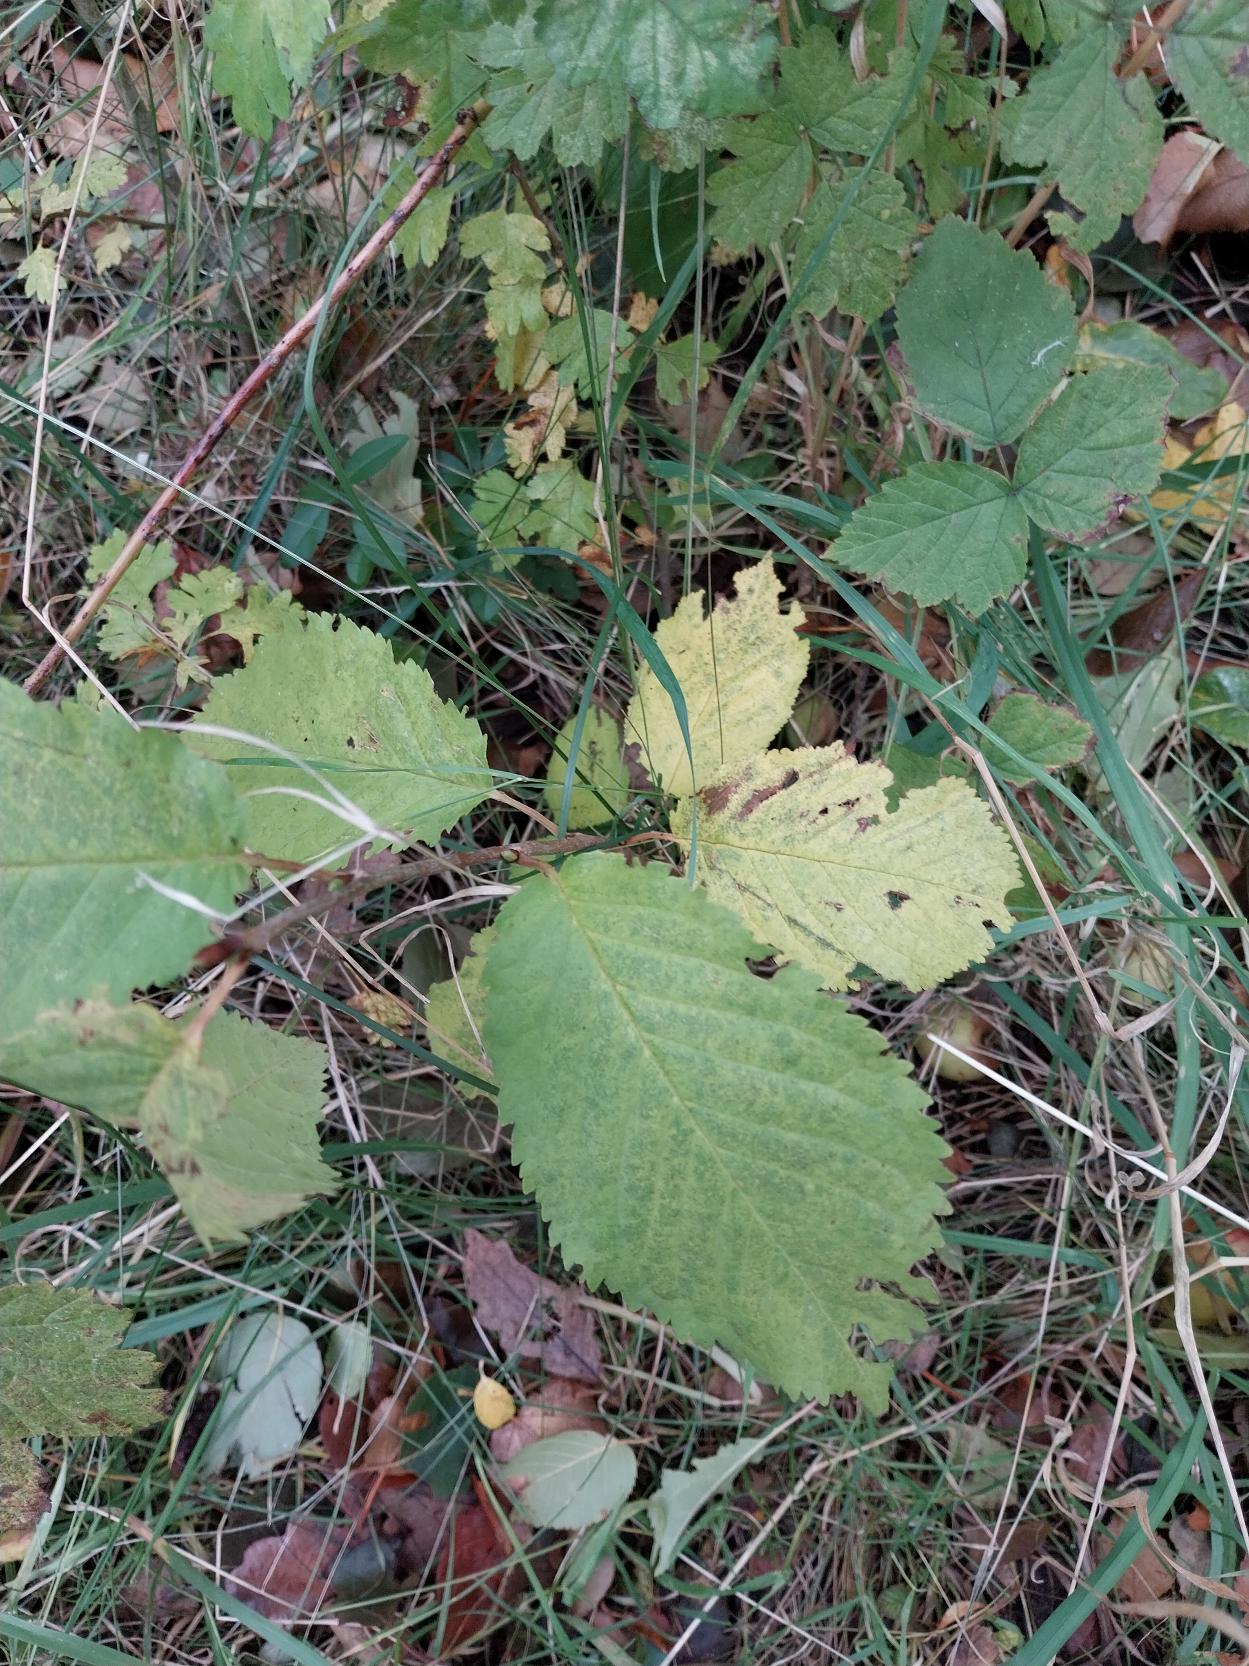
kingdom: Plantae
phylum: Tracheophyta
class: Magnoliopsida
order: Rosales
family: Rosaceae
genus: Prunus
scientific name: Prunus avium
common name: Fugle-kirsebær
